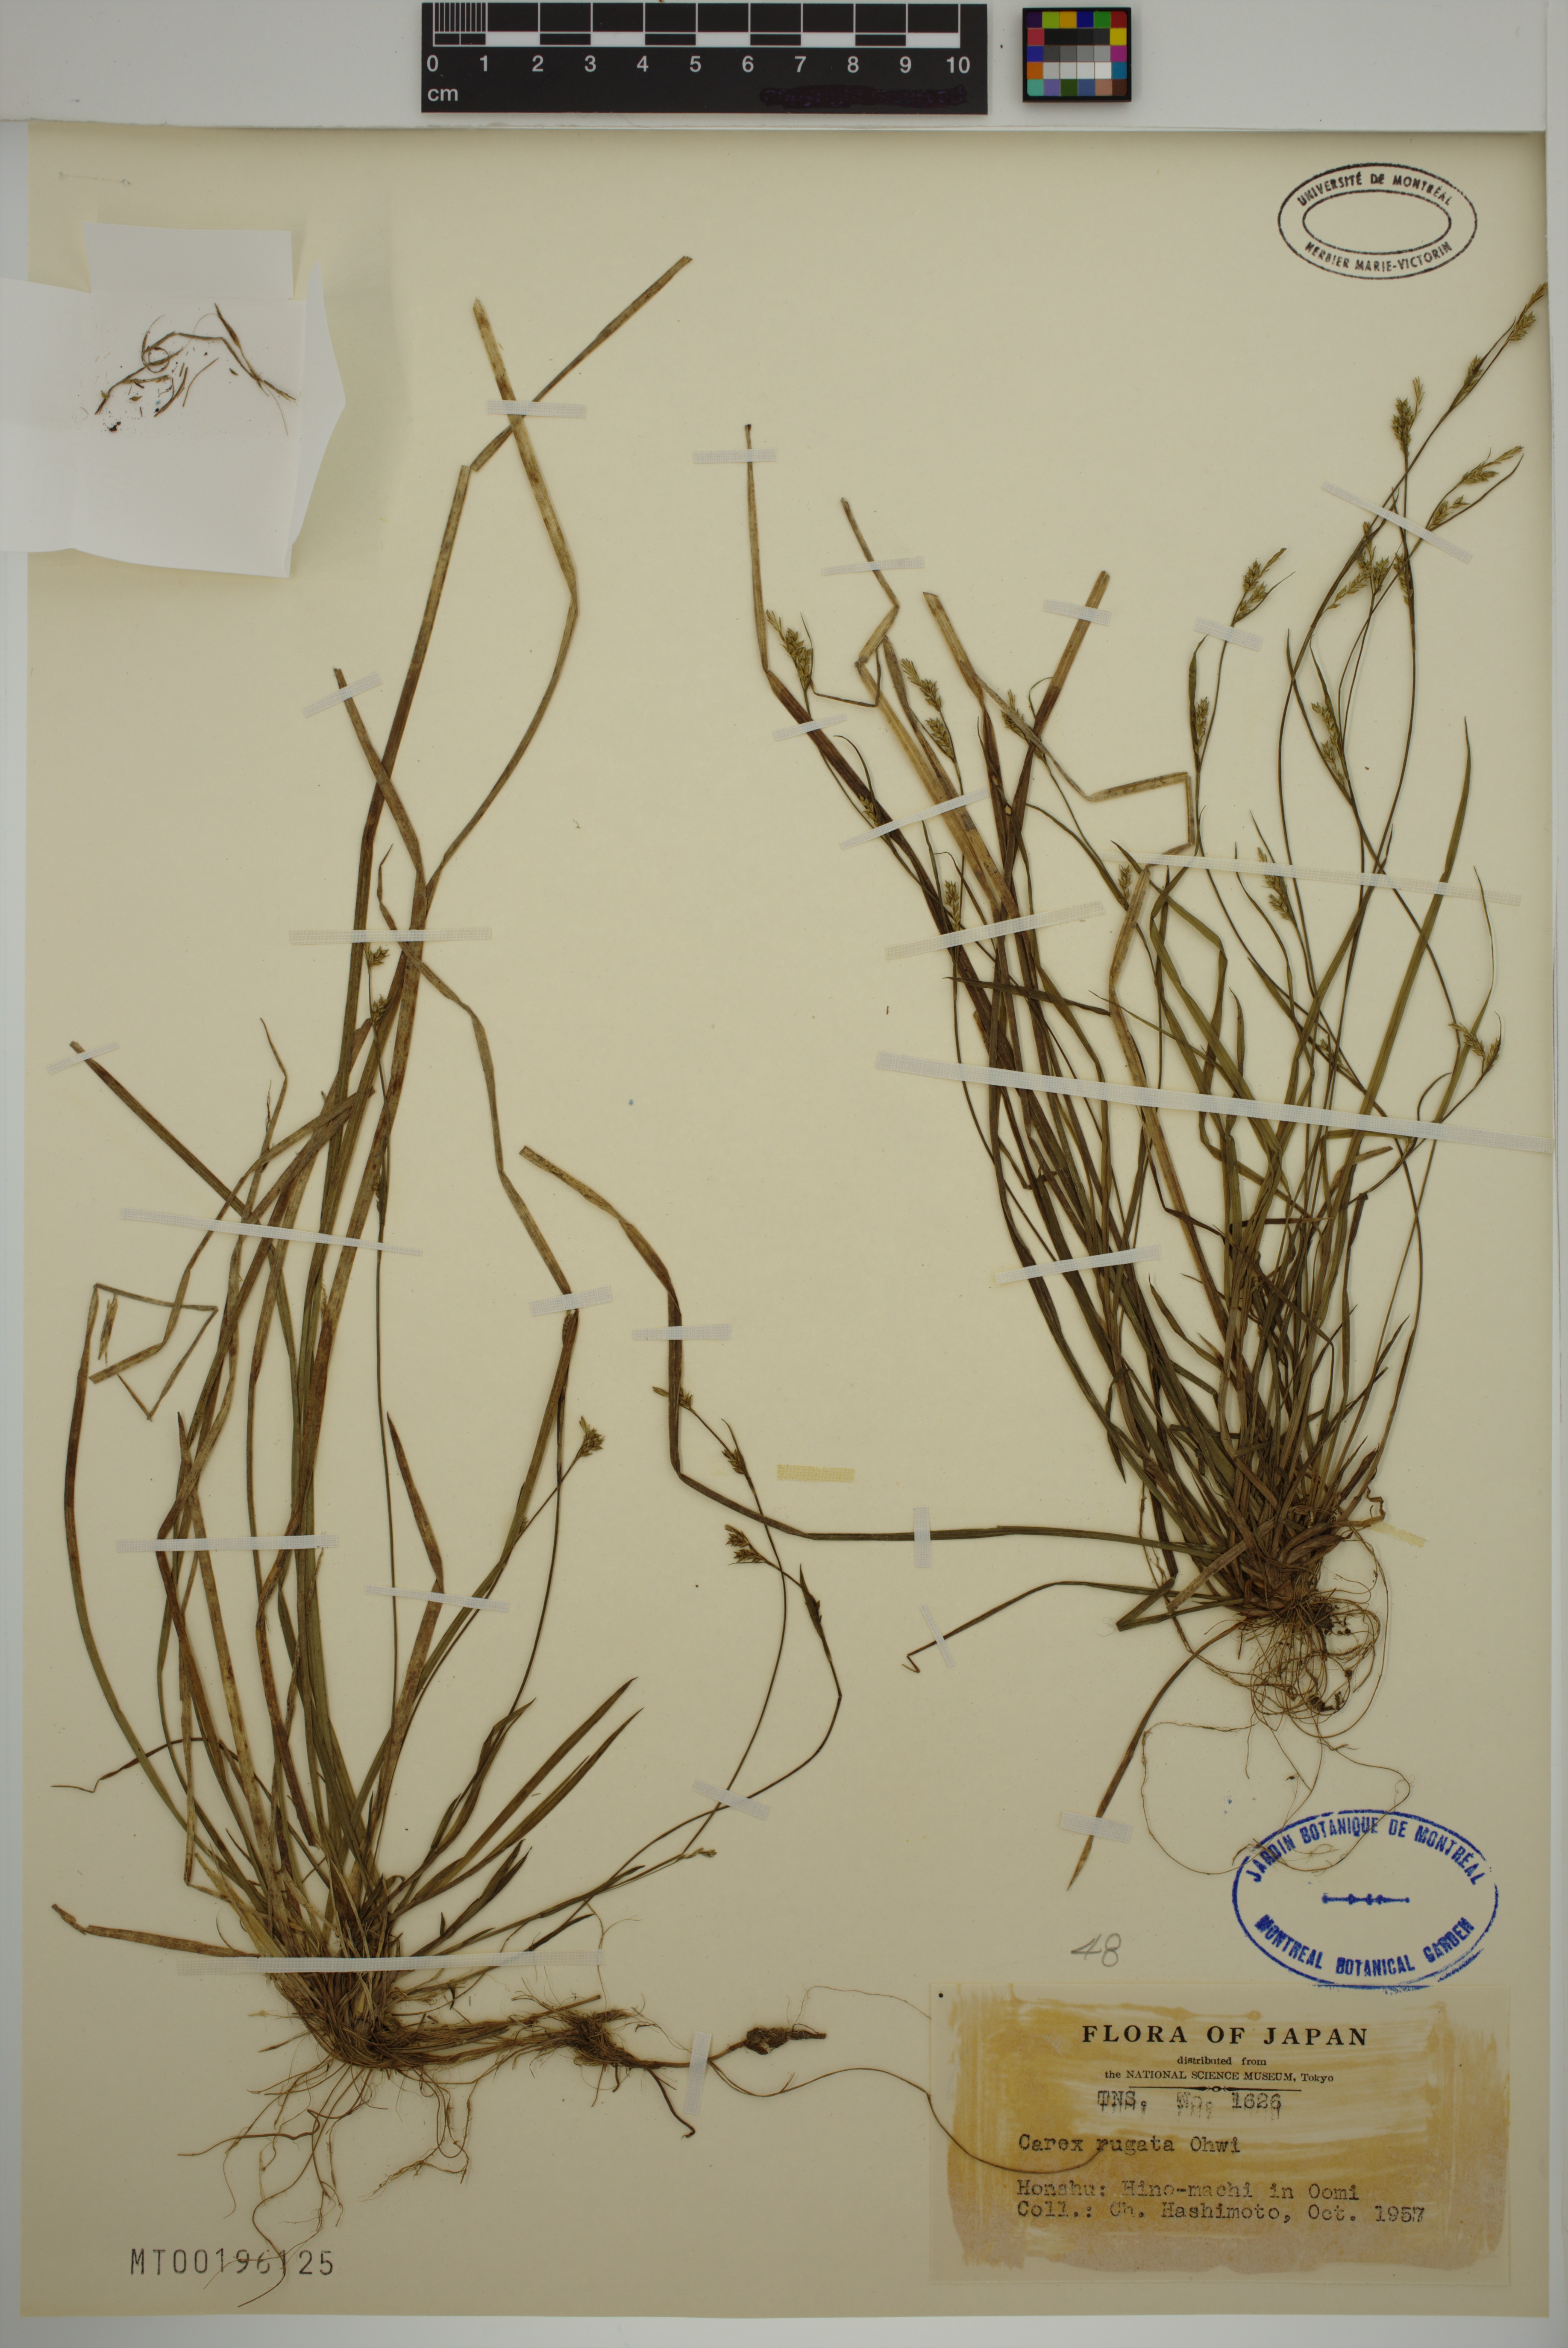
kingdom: Plantae
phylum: Tracheophyta
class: Liliopsida
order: Poales
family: Cyperaceae
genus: Carex
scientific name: Carex rugata
